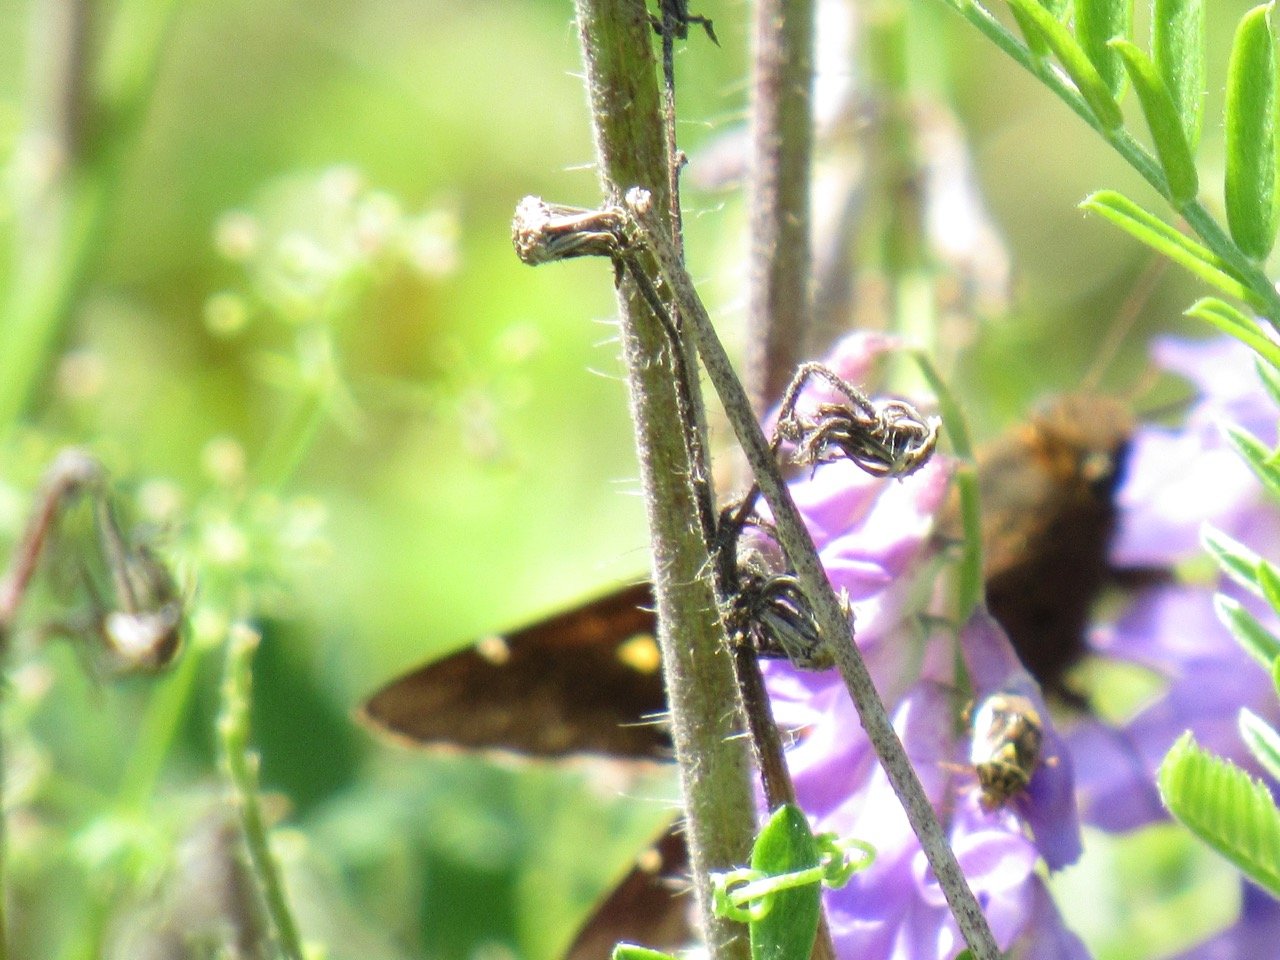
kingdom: Animalia
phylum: Arthropoda
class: Insecta
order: Lepidoptera
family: Hesperiidae
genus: Epargyreus
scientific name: Epargyreus clarus
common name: Silver-spotted Skipper
